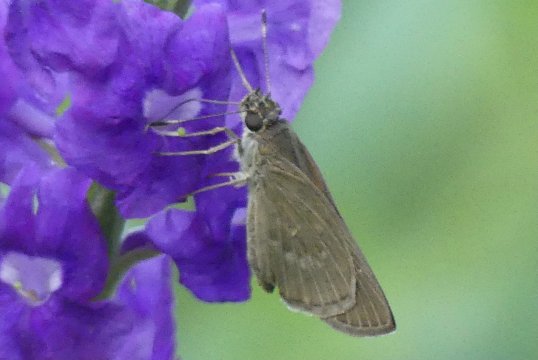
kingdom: Animalia
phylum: Arthropoda
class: Insecta
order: Lepidoptera
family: Hesperiidae
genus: Vehilius
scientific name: Vehilius inca
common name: Inca Skipper
